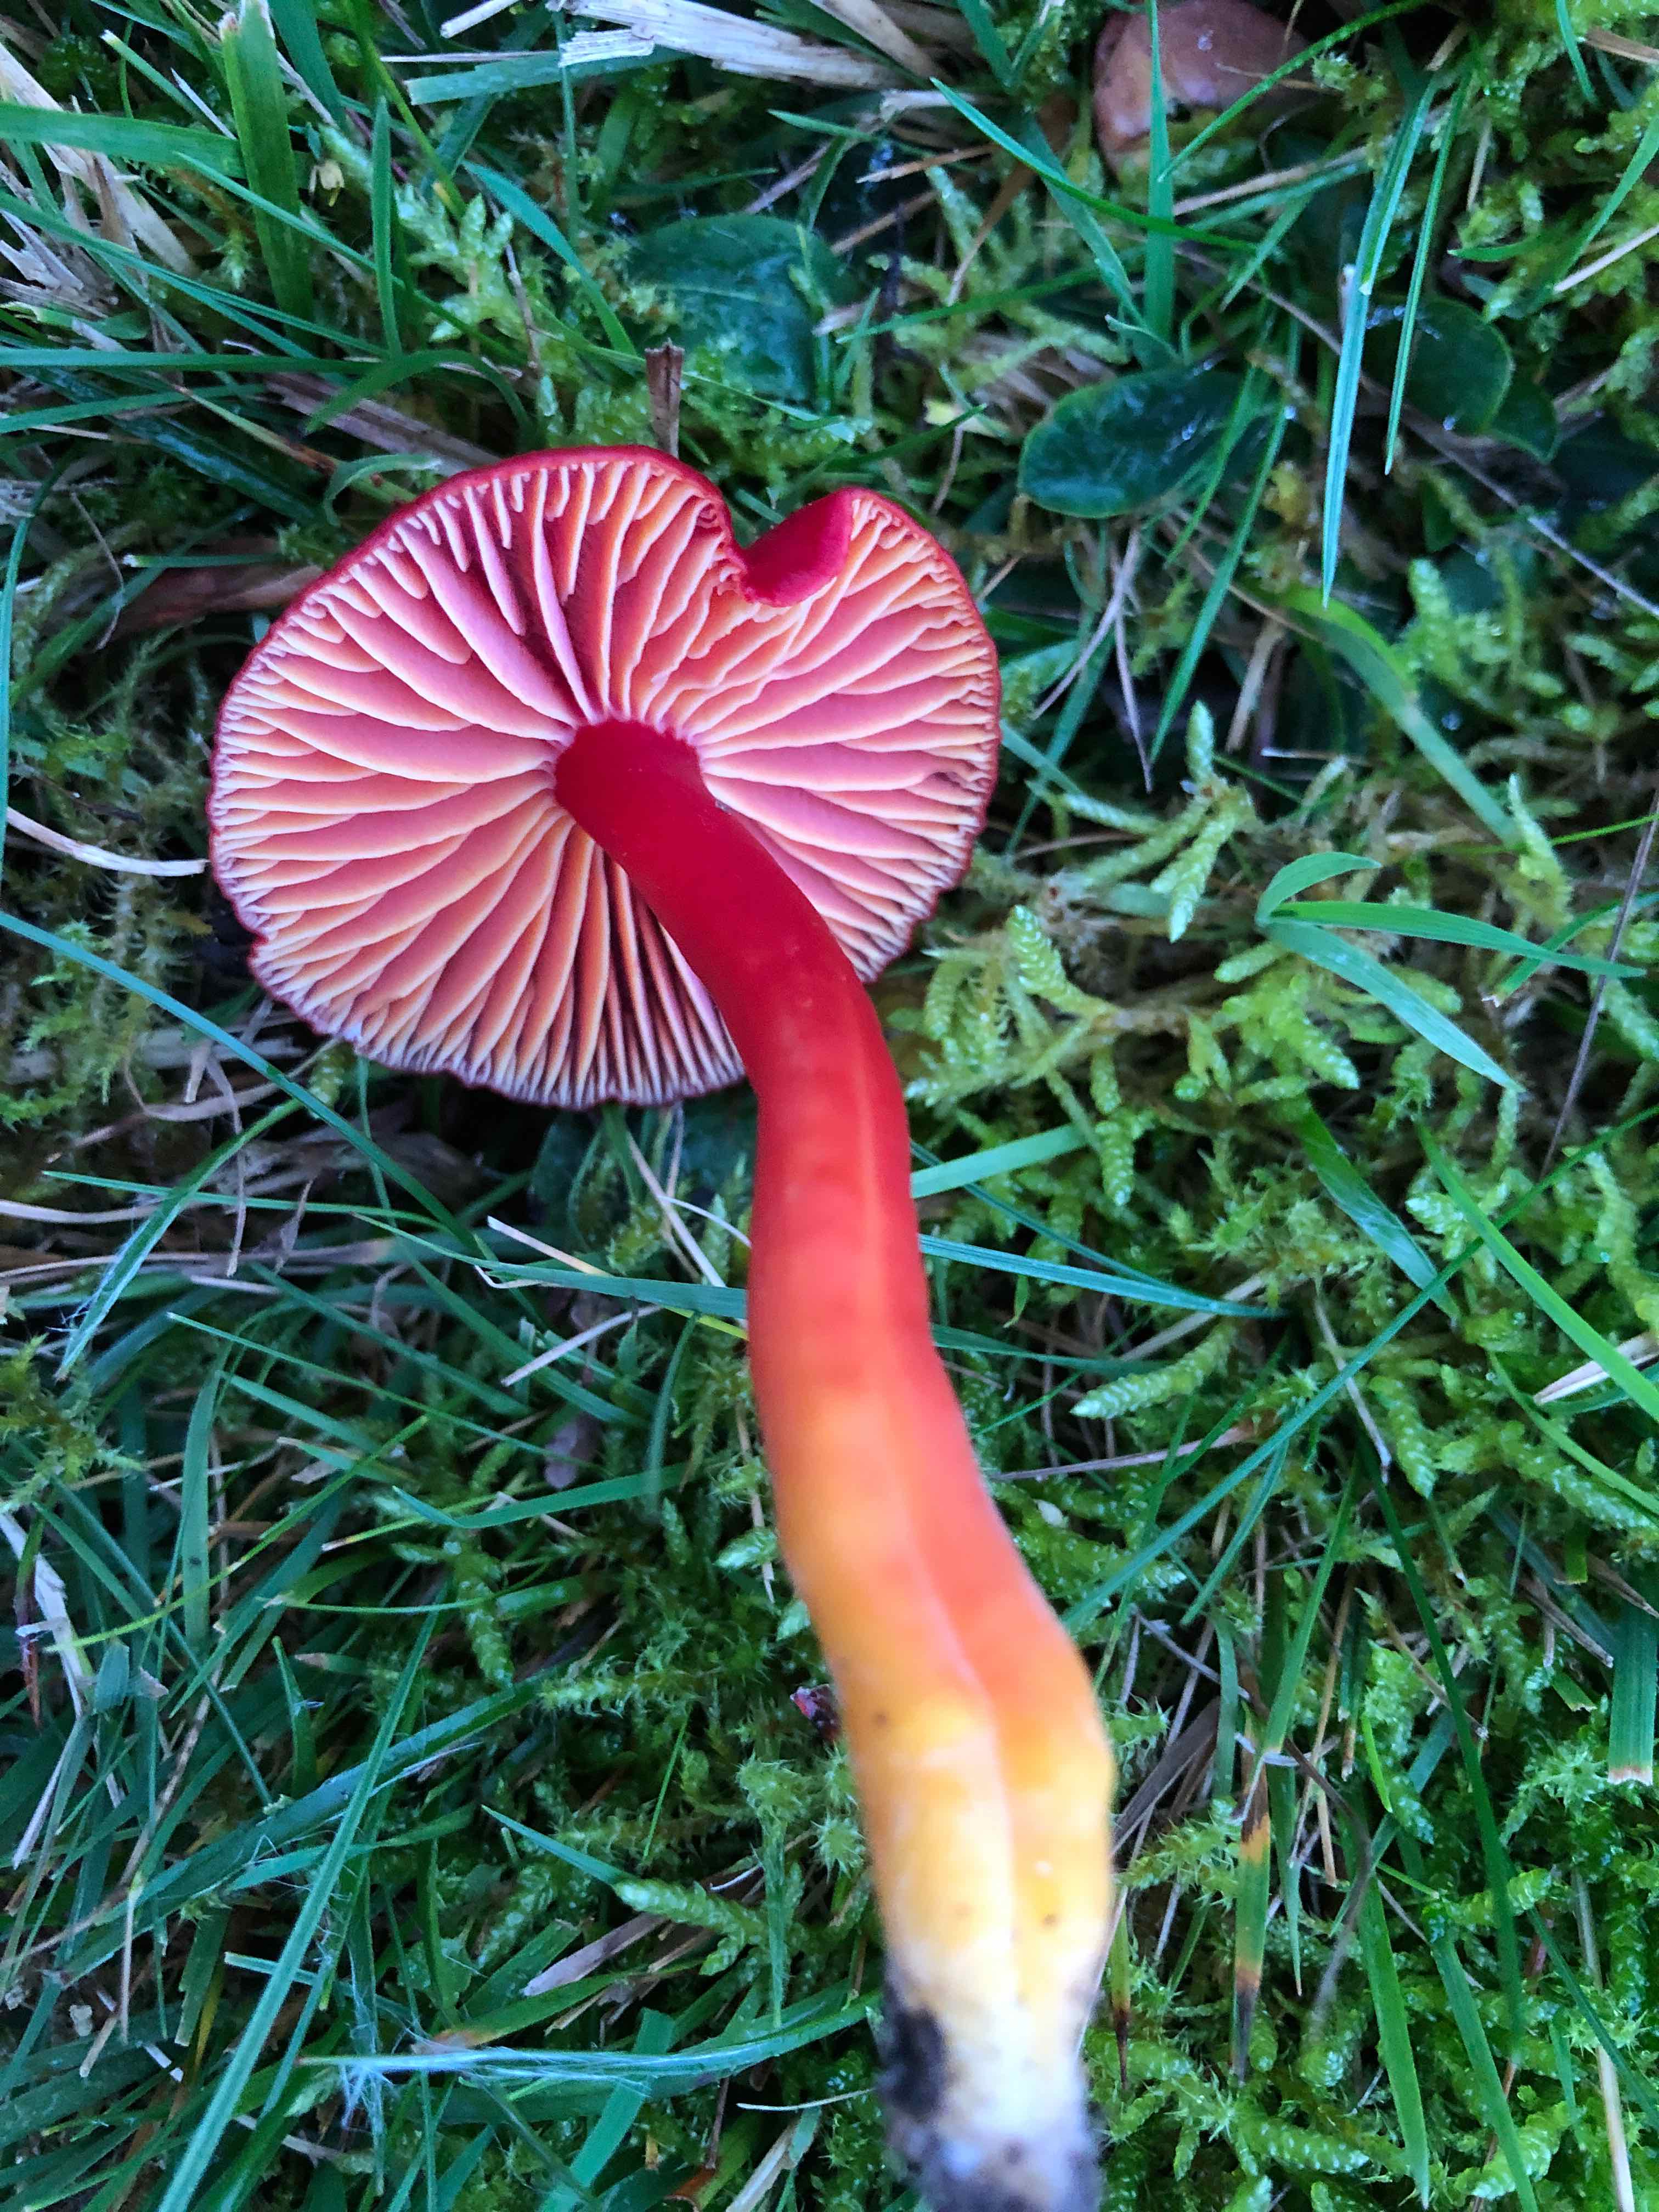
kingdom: Fungi
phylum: Basidiomycota
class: Agaricomycetes
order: Agaricales
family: Hygrophoraceae
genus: Hygrocybe
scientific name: Hygrocybe coccinea
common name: cinnober-vokshat
